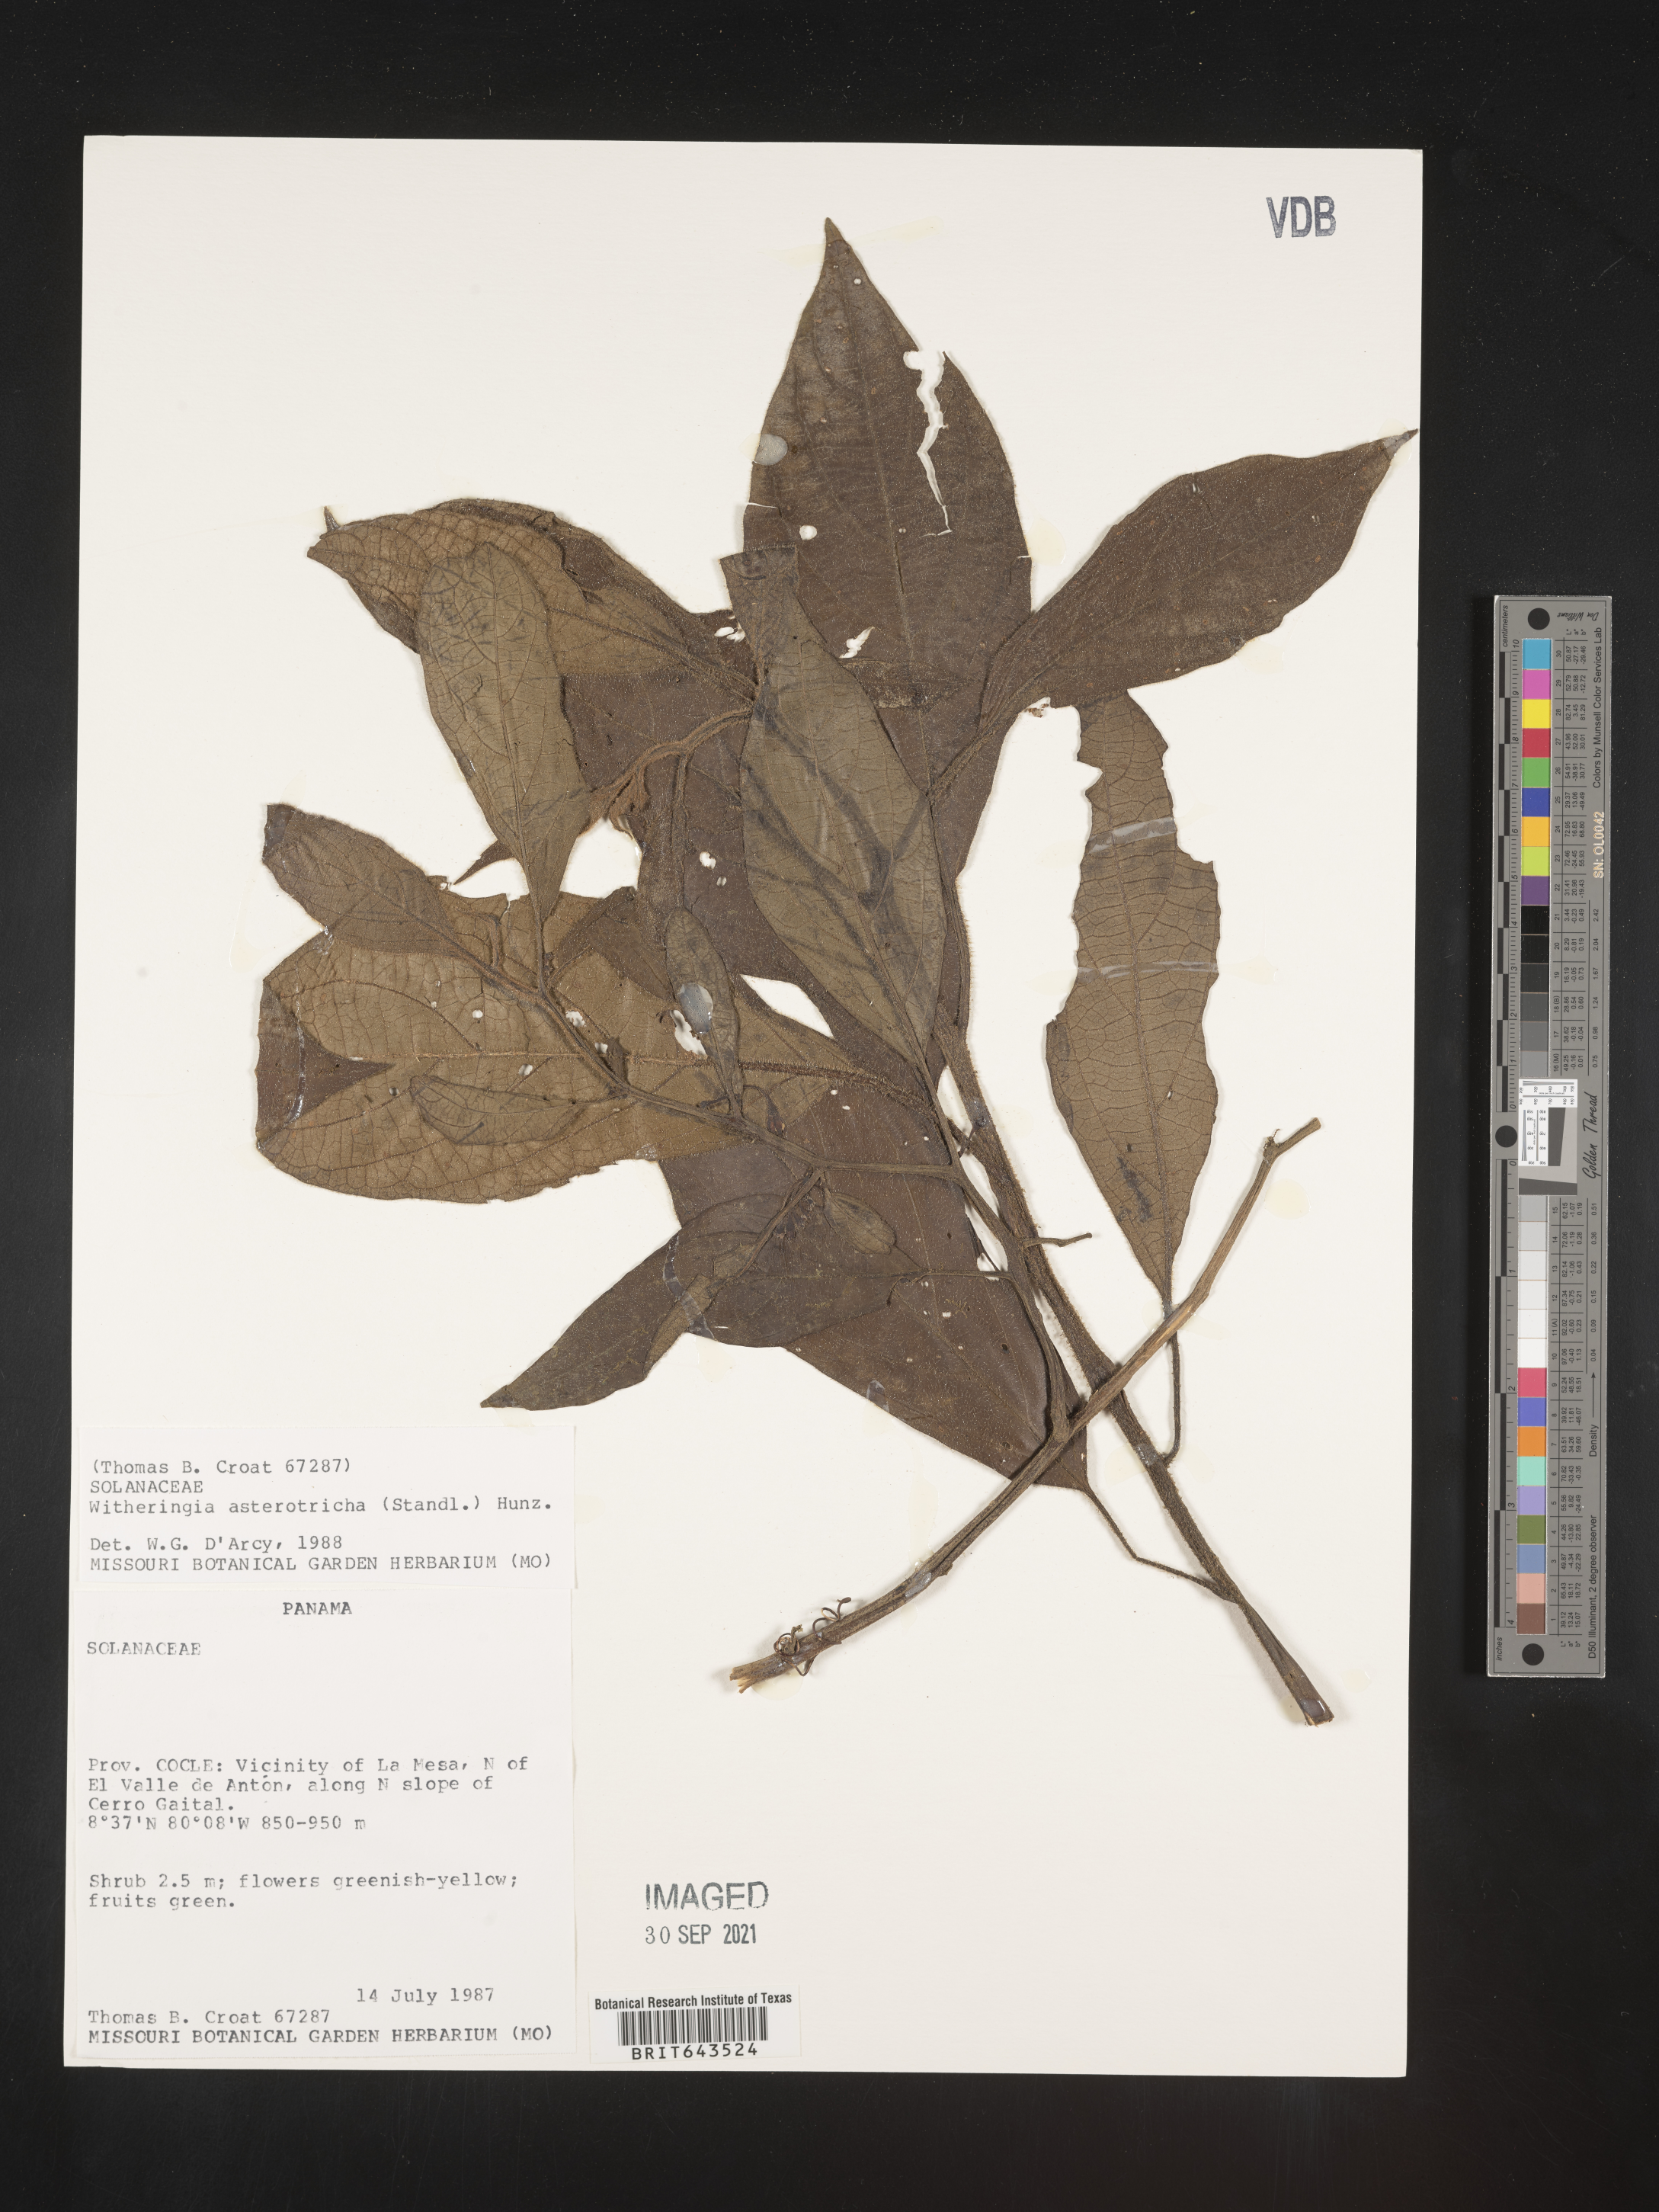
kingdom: Plantae
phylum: Tracheophyta
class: Magnoliopsida
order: Solanales
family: Solanaceae
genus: Witheringia
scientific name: Witheringia
